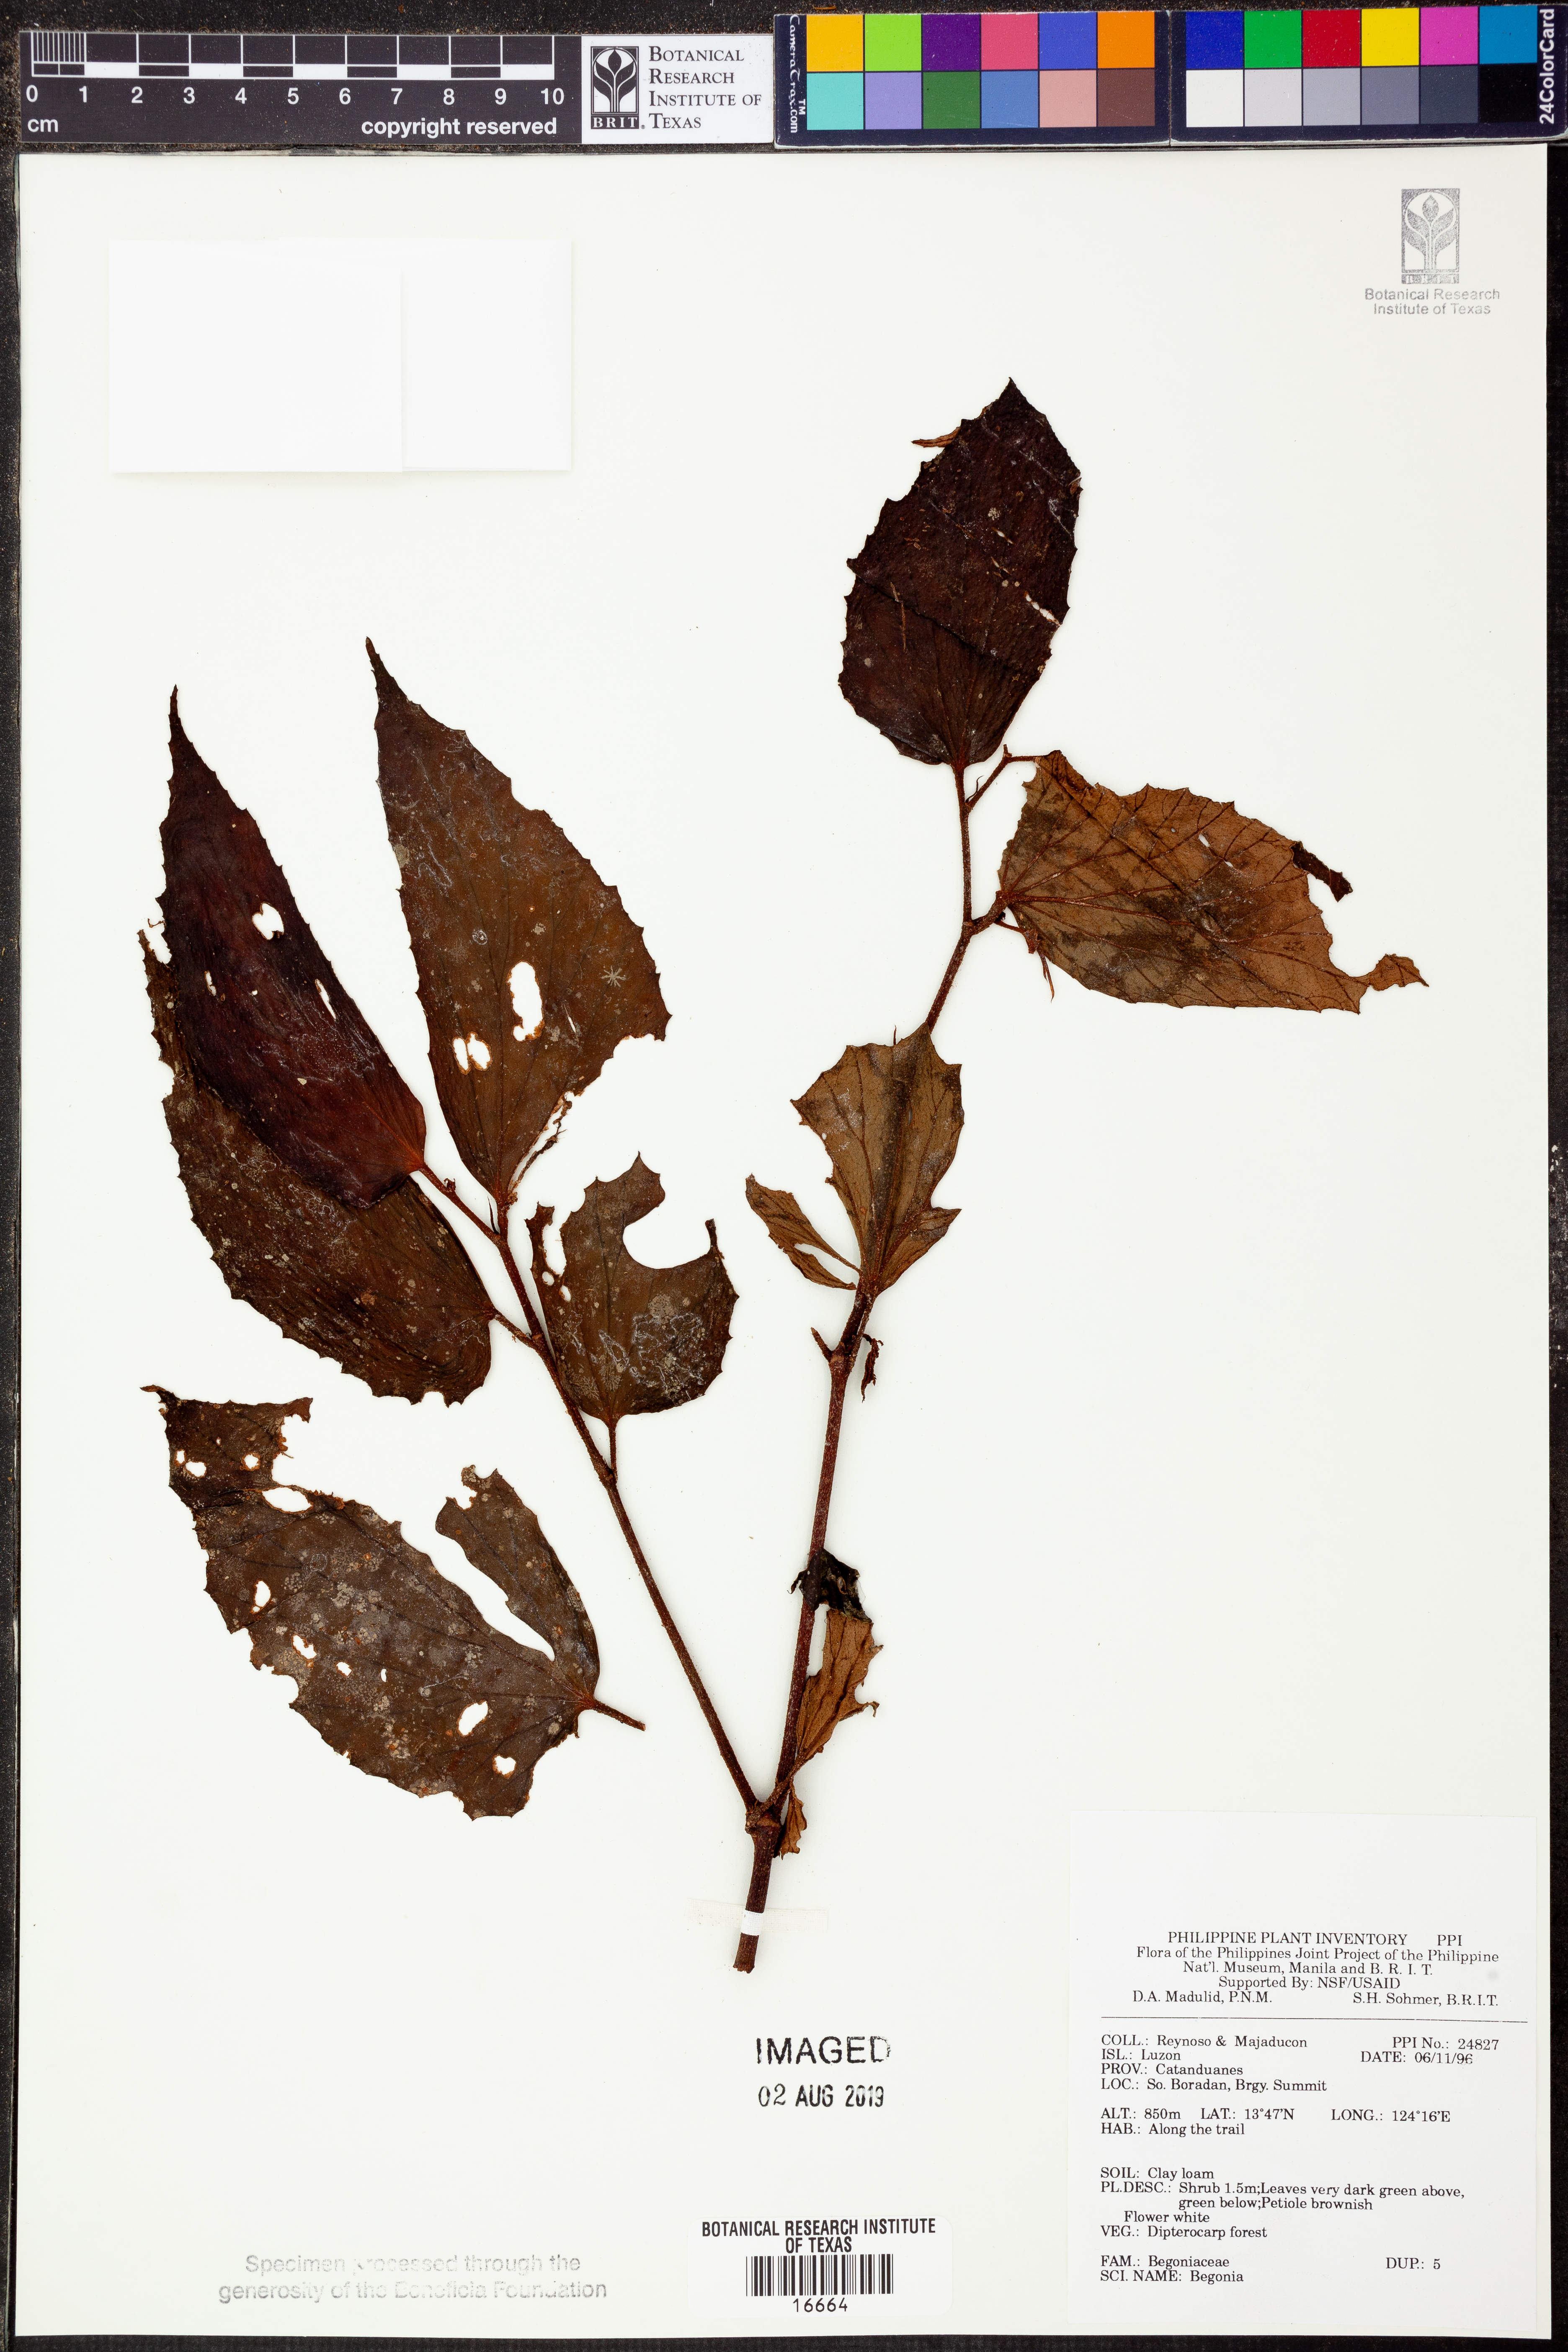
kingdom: Plantae
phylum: Tracheophyta
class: Magnoliopsida
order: Cucurbitales
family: Begoniaceae
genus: Begonia
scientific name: Begonia
